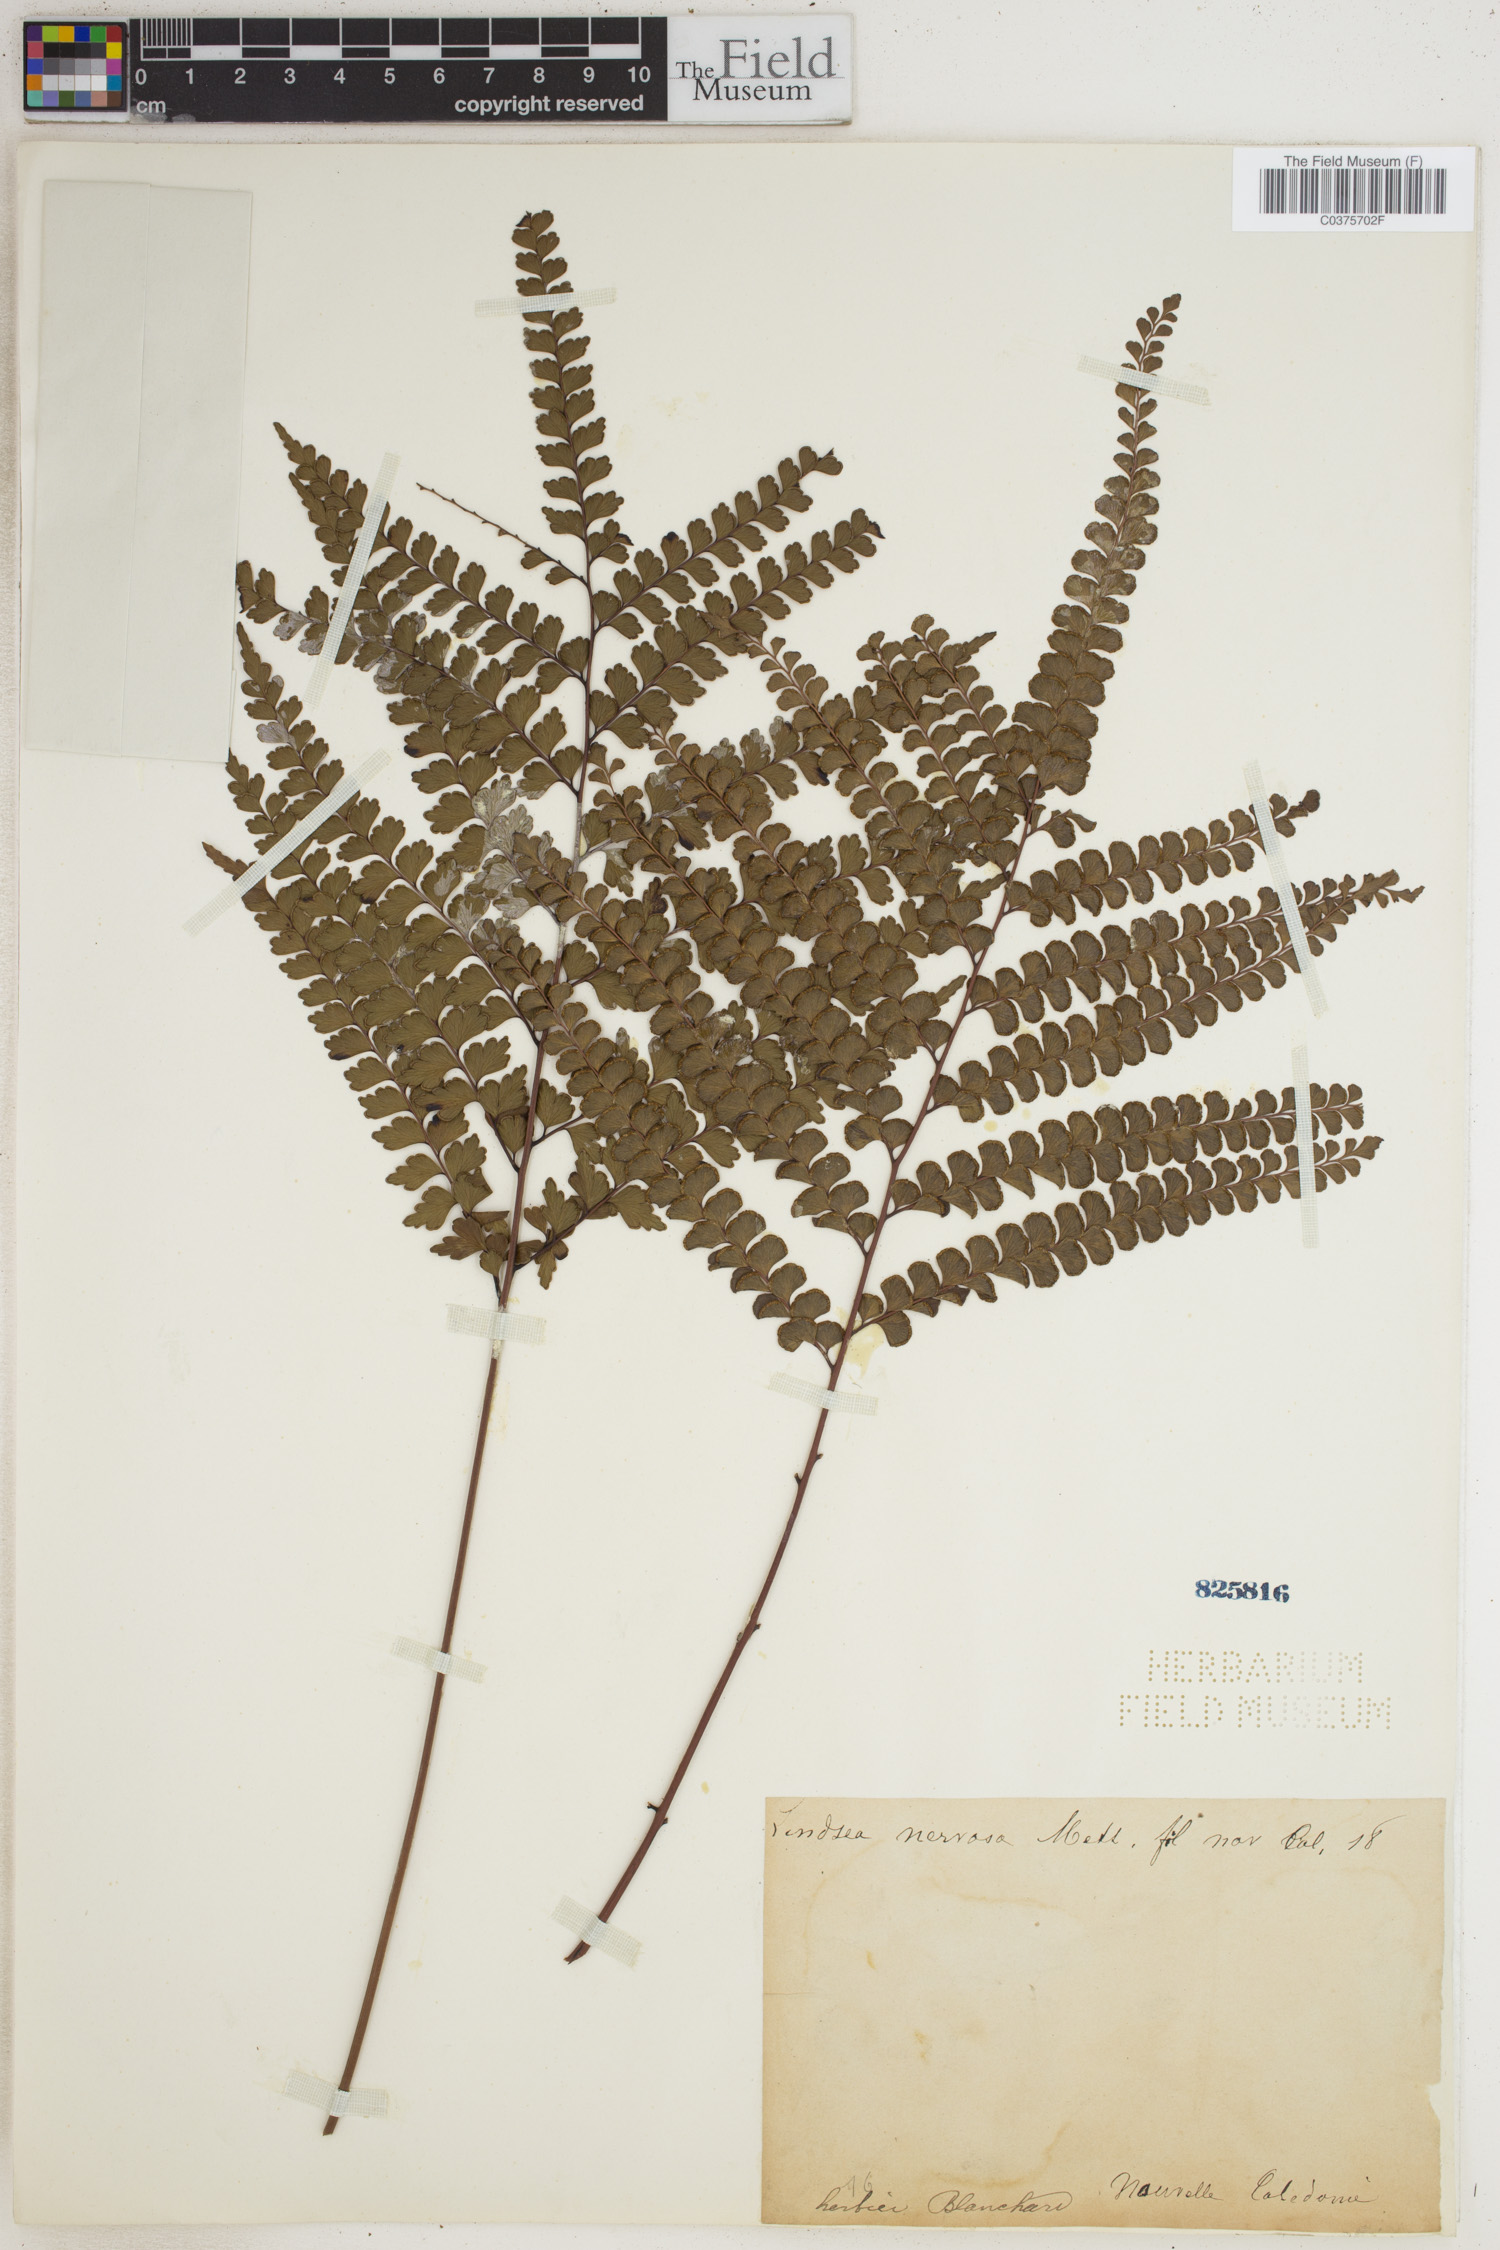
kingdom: Plantae
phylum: Tracheophyta
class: Polypodiopsida
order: Polypodiales
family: Lindsaeaceae
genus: Lindsaea
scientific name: Lindsaea rigidiuscula
